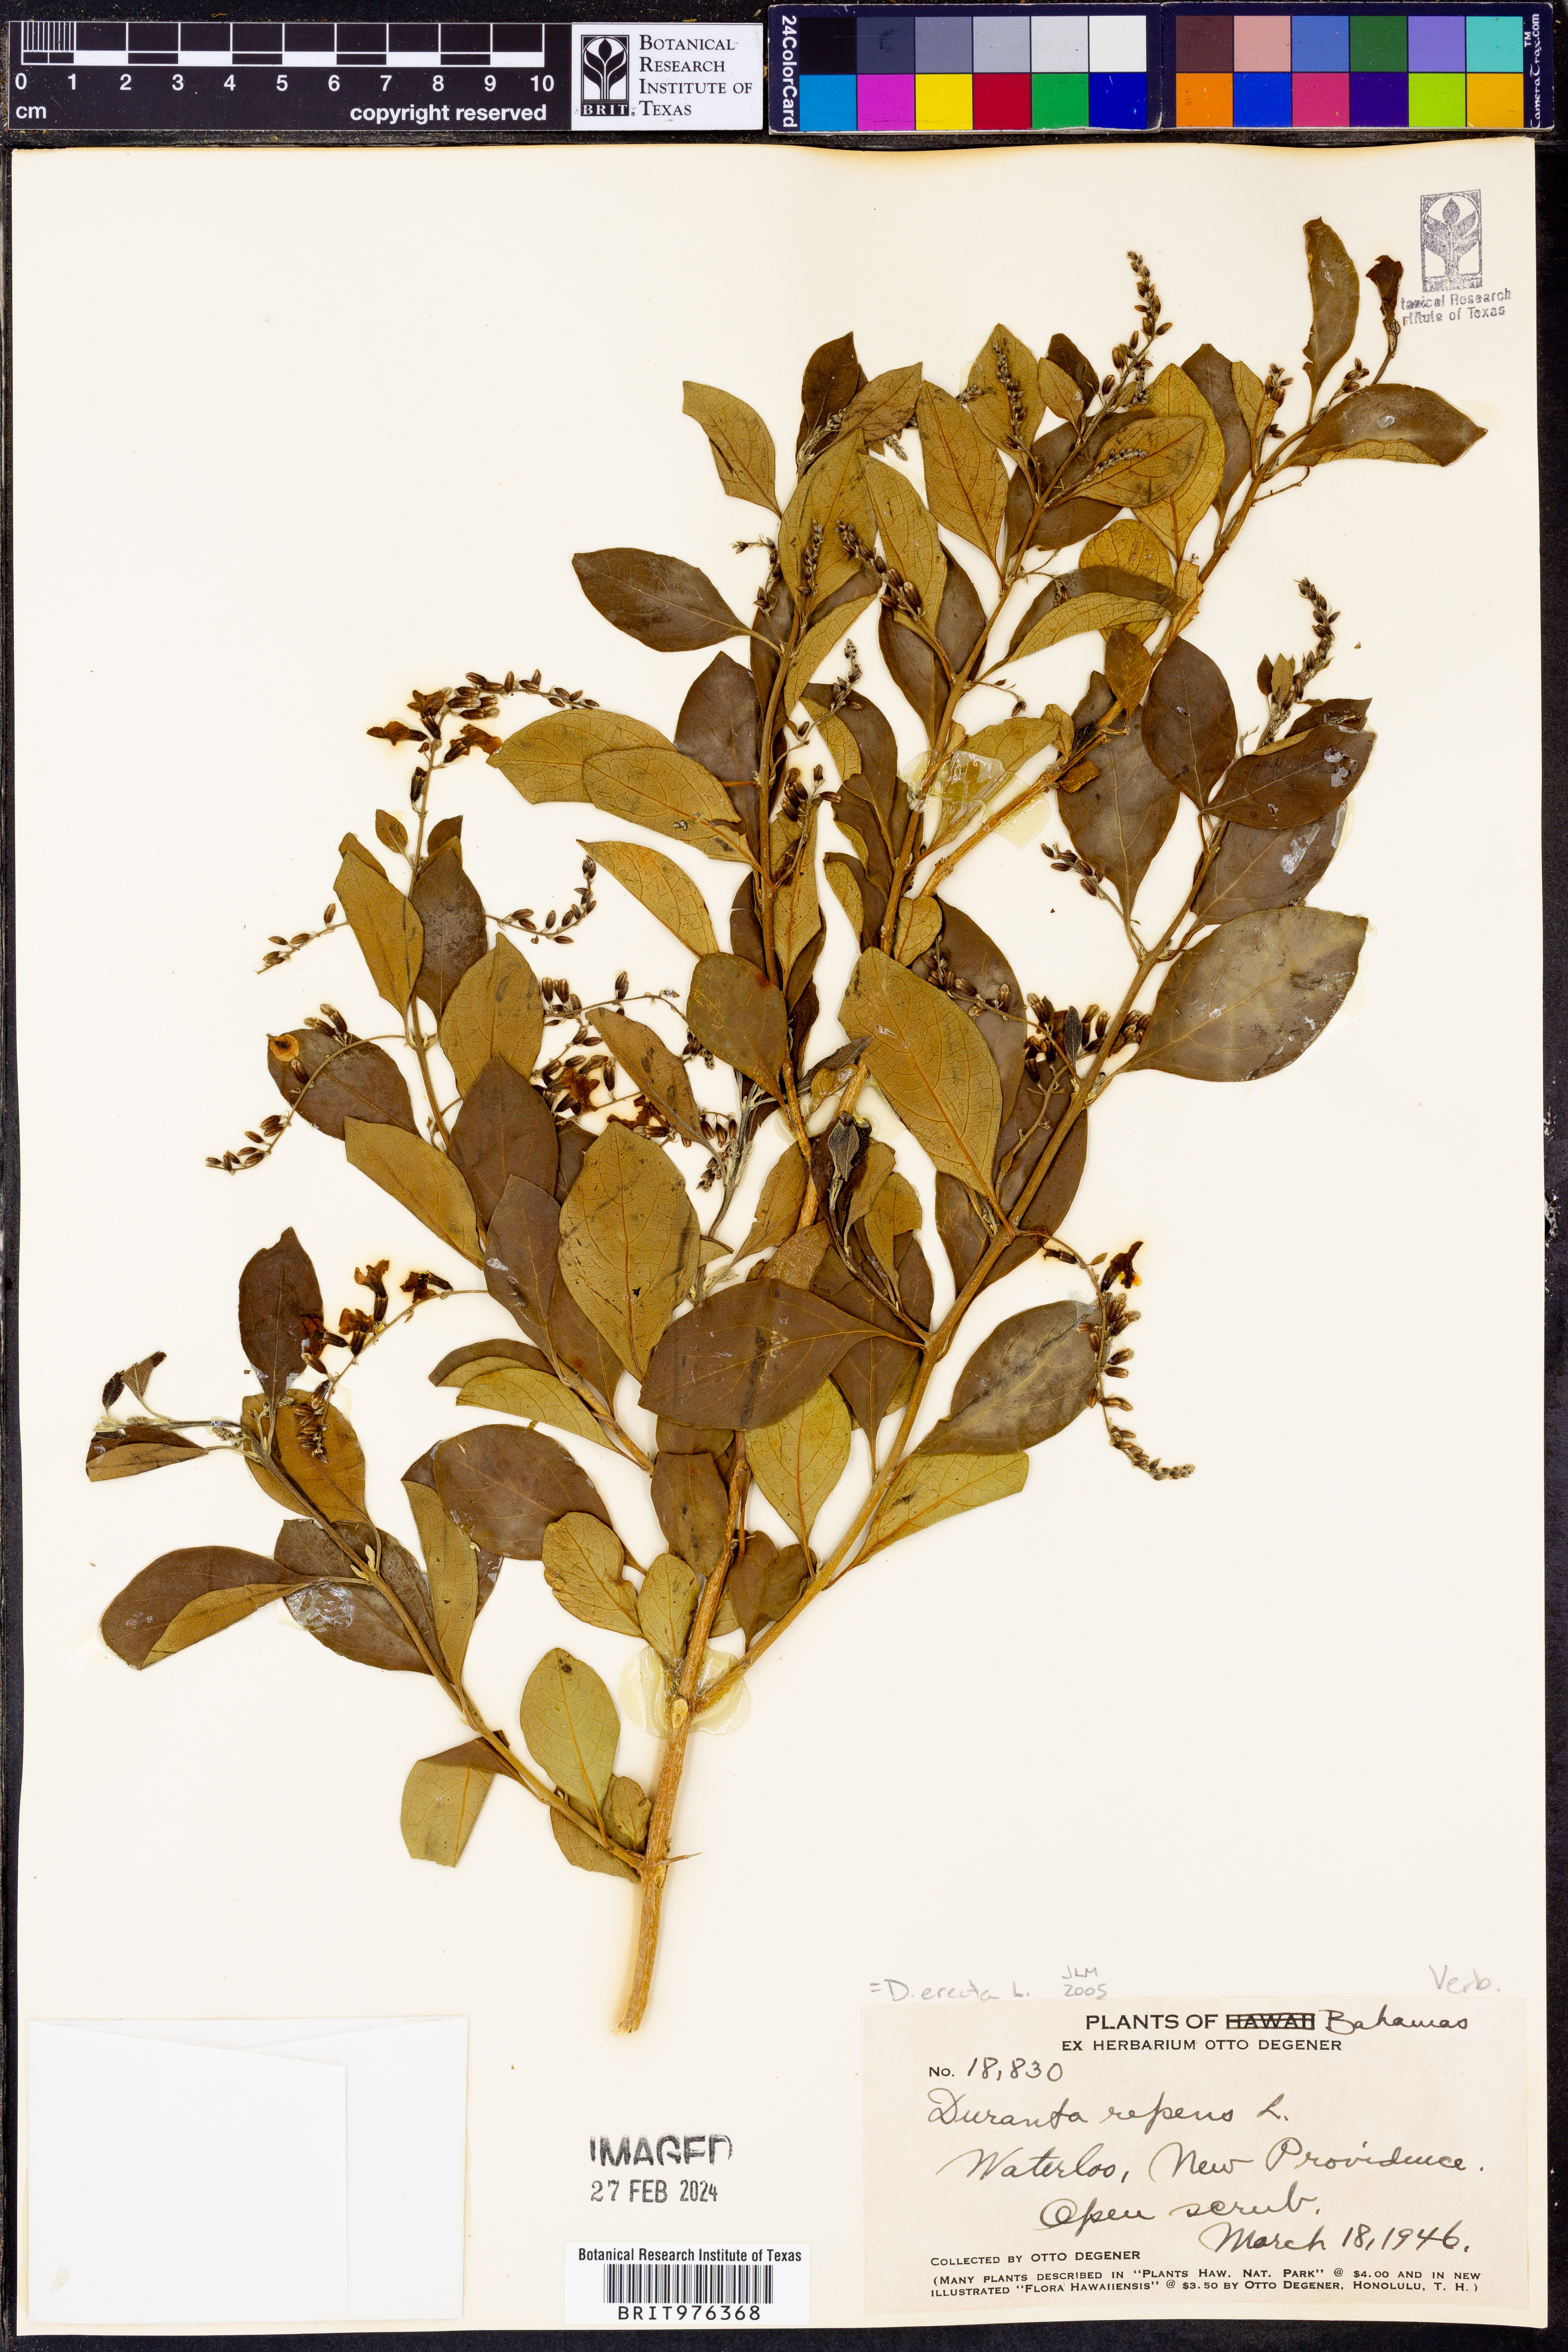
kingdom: Plantae
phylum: Tracheophyta
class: Magnoliopsida
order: Lamiales
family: Verbenaceae
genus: Duranta
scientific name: Duranta
